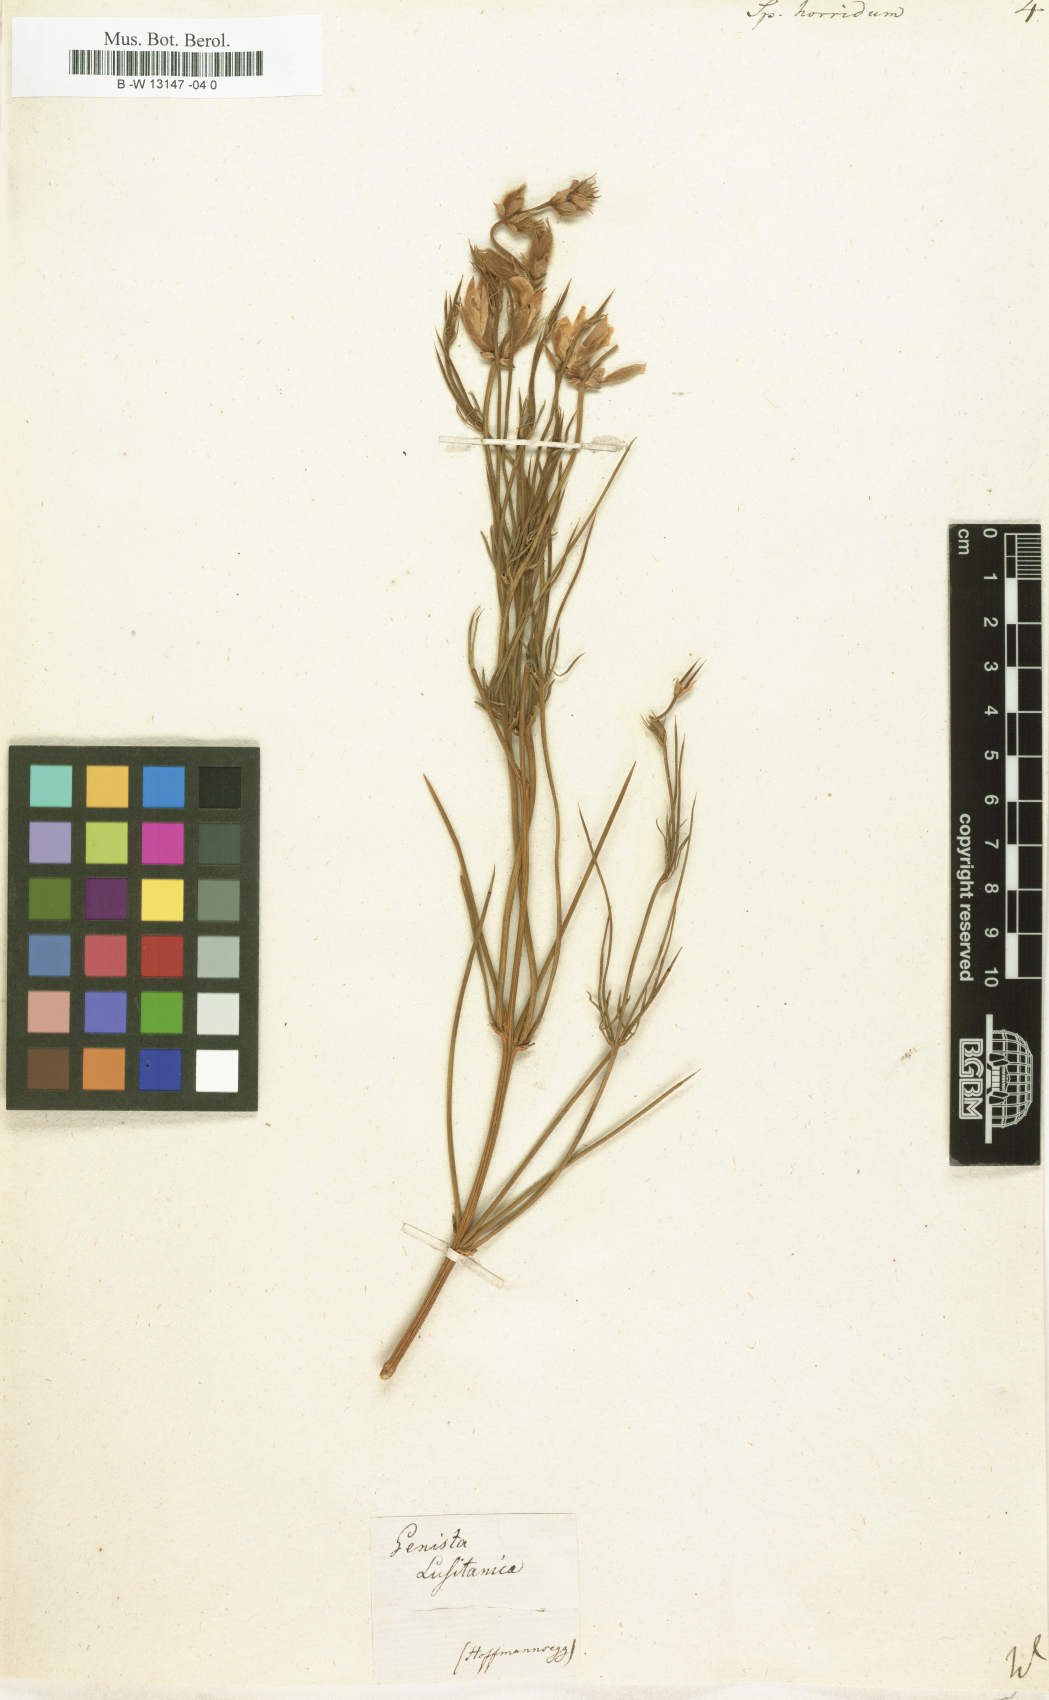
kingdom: Plantae
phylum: Tracheophyta
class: Magnoliopsida
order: Fabales
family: Fabaceae
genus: Echinospartum
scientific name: Echinospartum horridum
